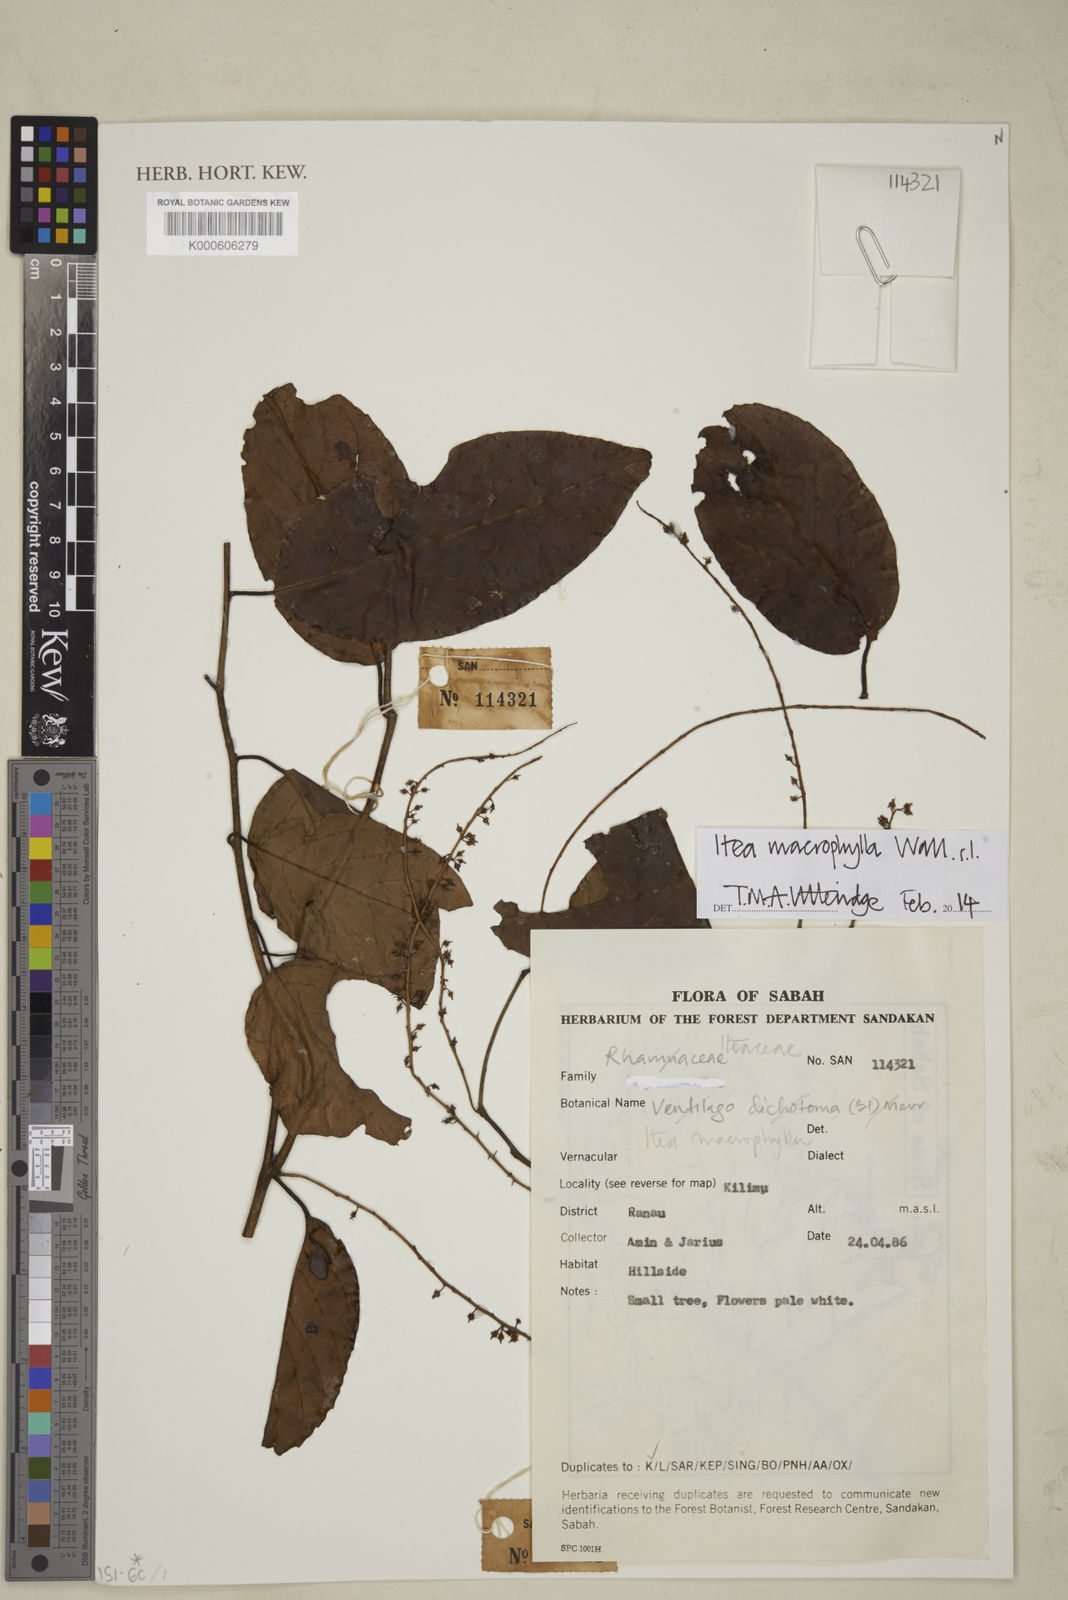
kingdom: Plantae
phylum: Tracheophyta
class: Magnoliopsida
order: Saxifragales
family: Iteaceae
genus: Itea
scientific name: Itea macrophylla
